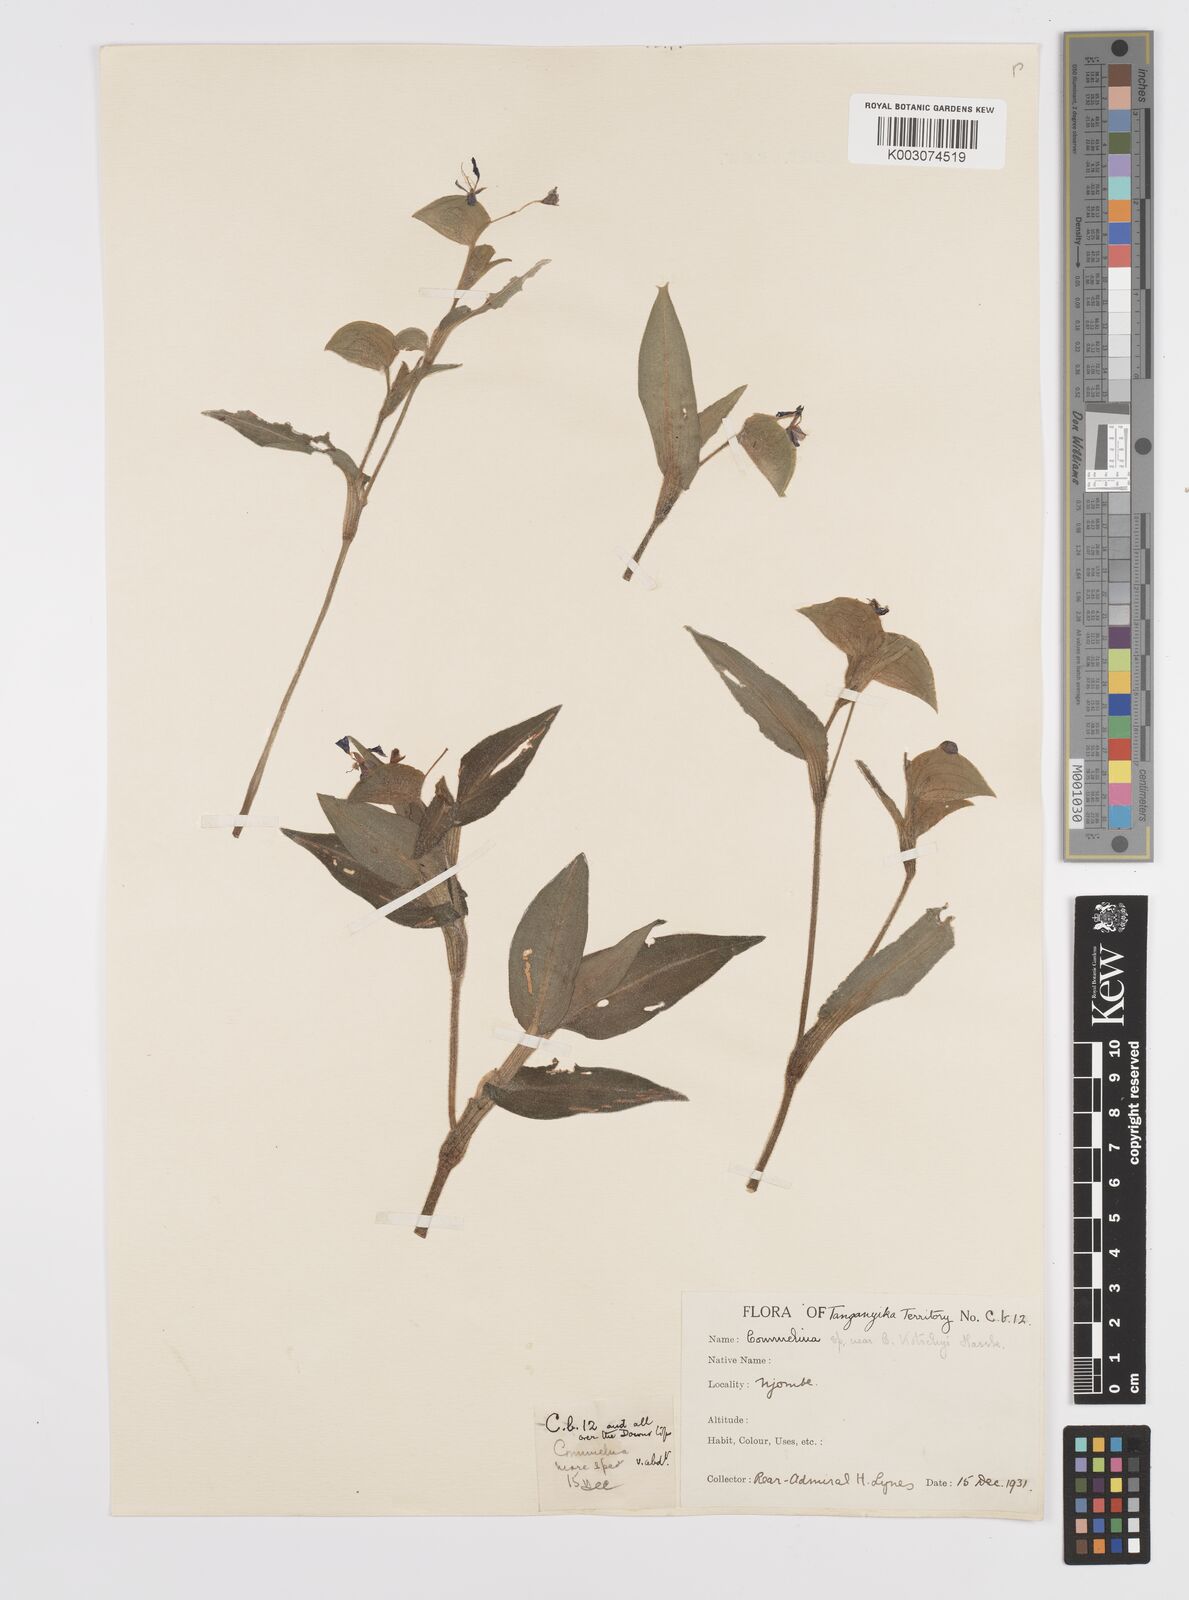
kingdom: Plantae
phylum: Tracheophyta
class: Liliopsida
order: Commelinales
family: Commelinaceae
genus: Commelina
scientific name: Commelina schliebenii
